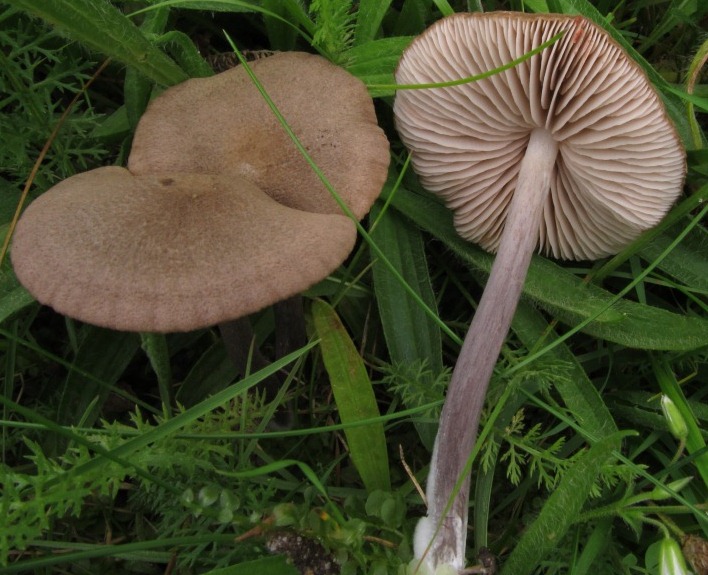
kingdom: Fungi
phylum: Basidiomycota
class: Agaricomycetes
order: Agaricales
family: Entolomataceae
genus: Entoloma
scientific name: Entoloma griseocyaneum
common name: gråblå rødblad
